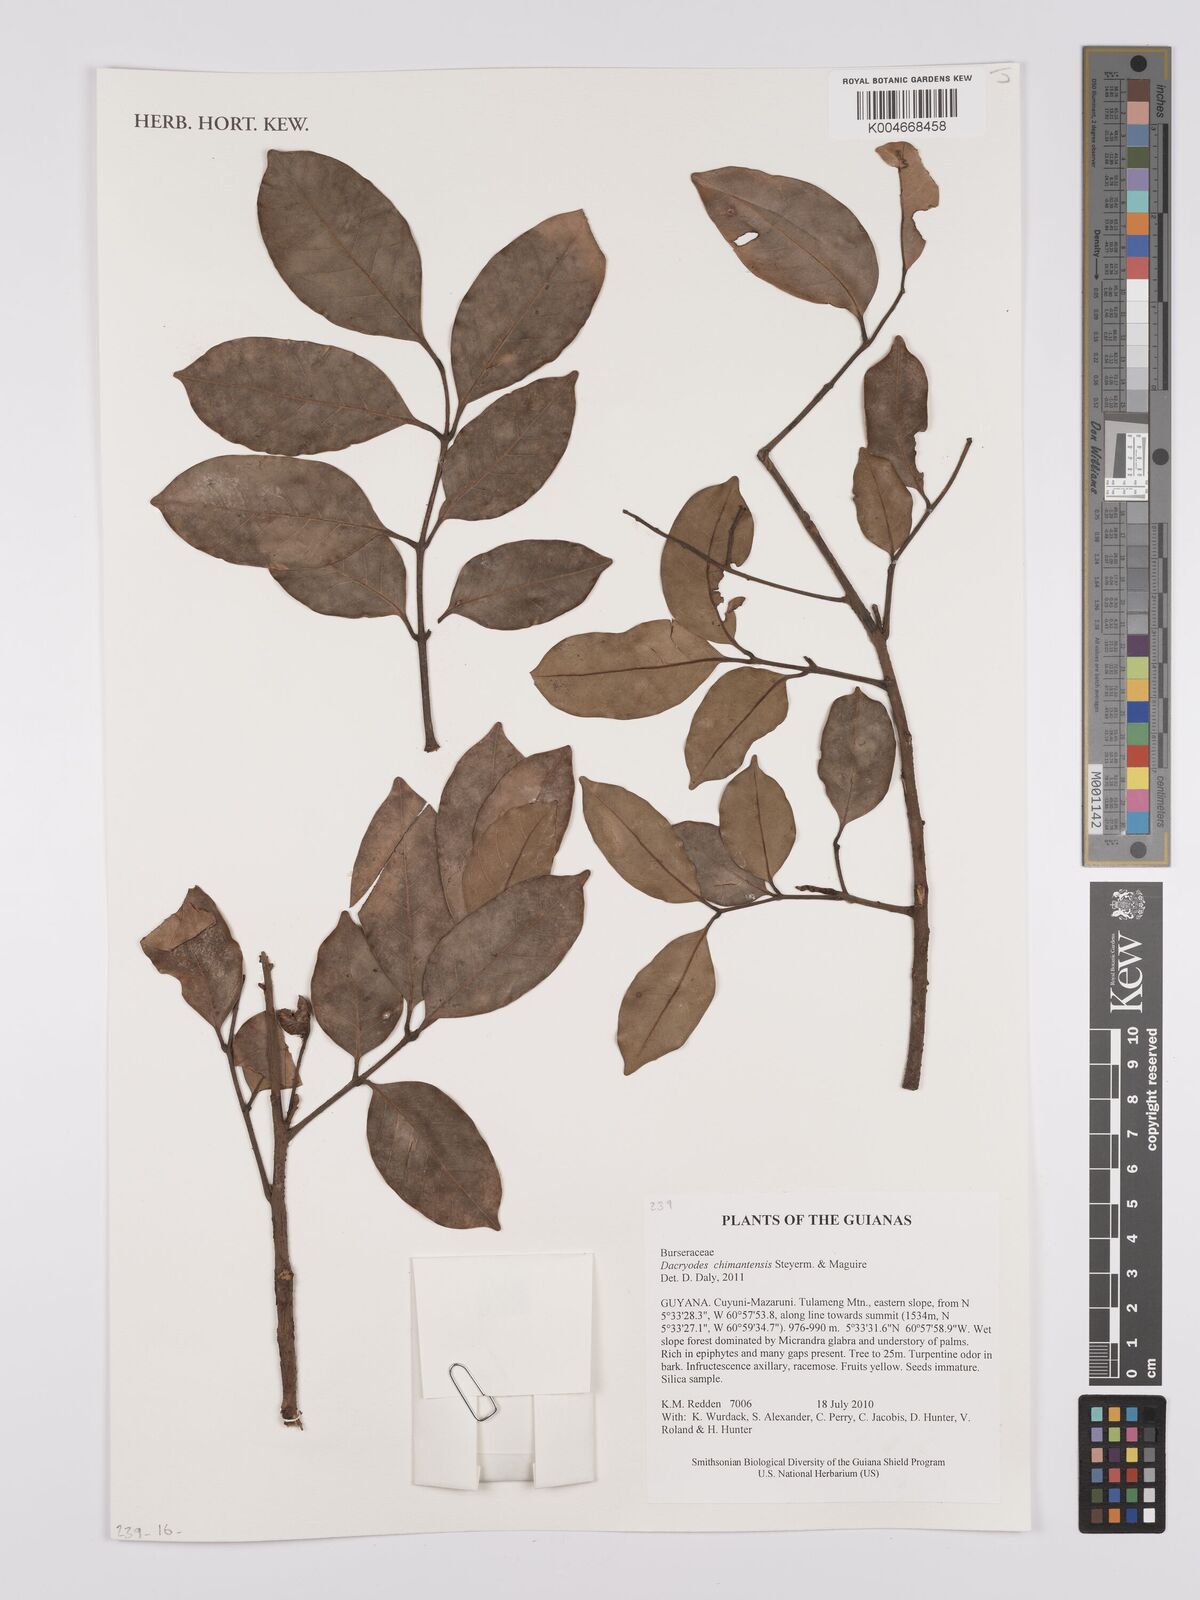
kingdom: Plantae
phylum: Tracheophyta
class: Magnoliopsida
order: Sapindales
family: Burseraceae
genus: Dacryodes
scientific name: Dacryodes chimantensis
